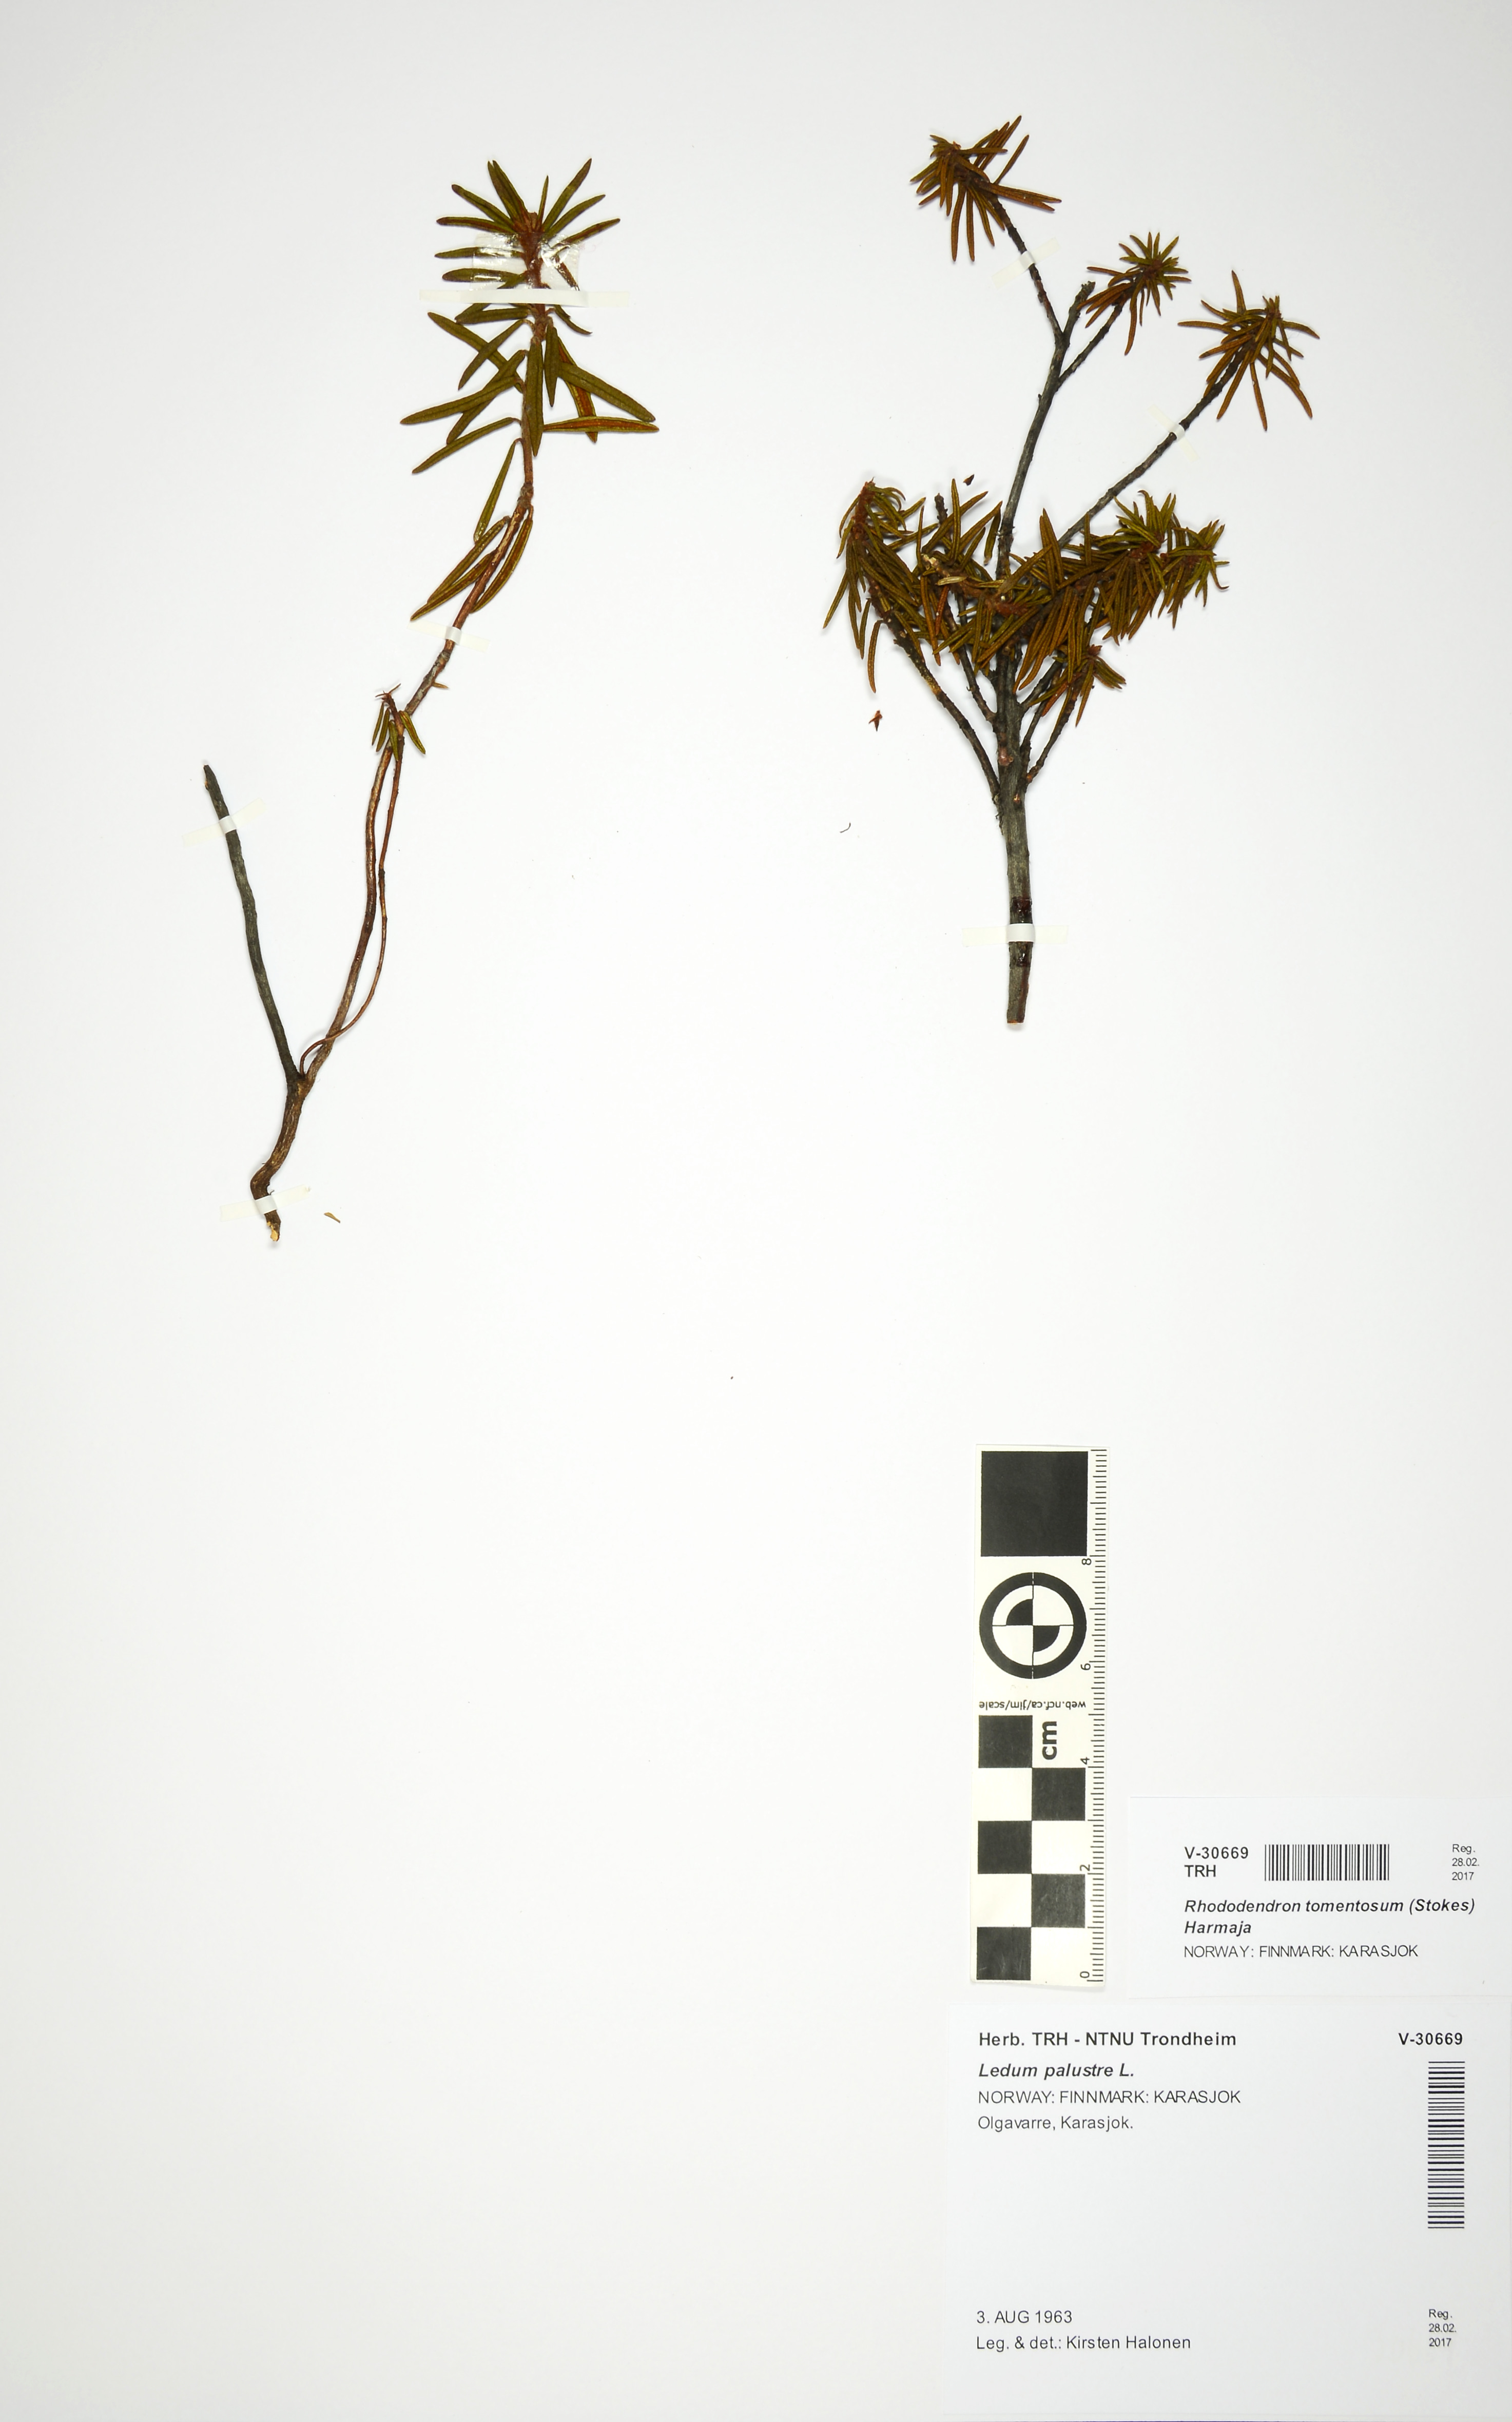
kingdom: Plantae
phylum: Tracheophyta
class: Magnoliopsida
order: Ericales
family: Ericaceae
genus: Rhododendron
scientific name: Rhododendron tomentosum
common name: Marsh labrador tea
